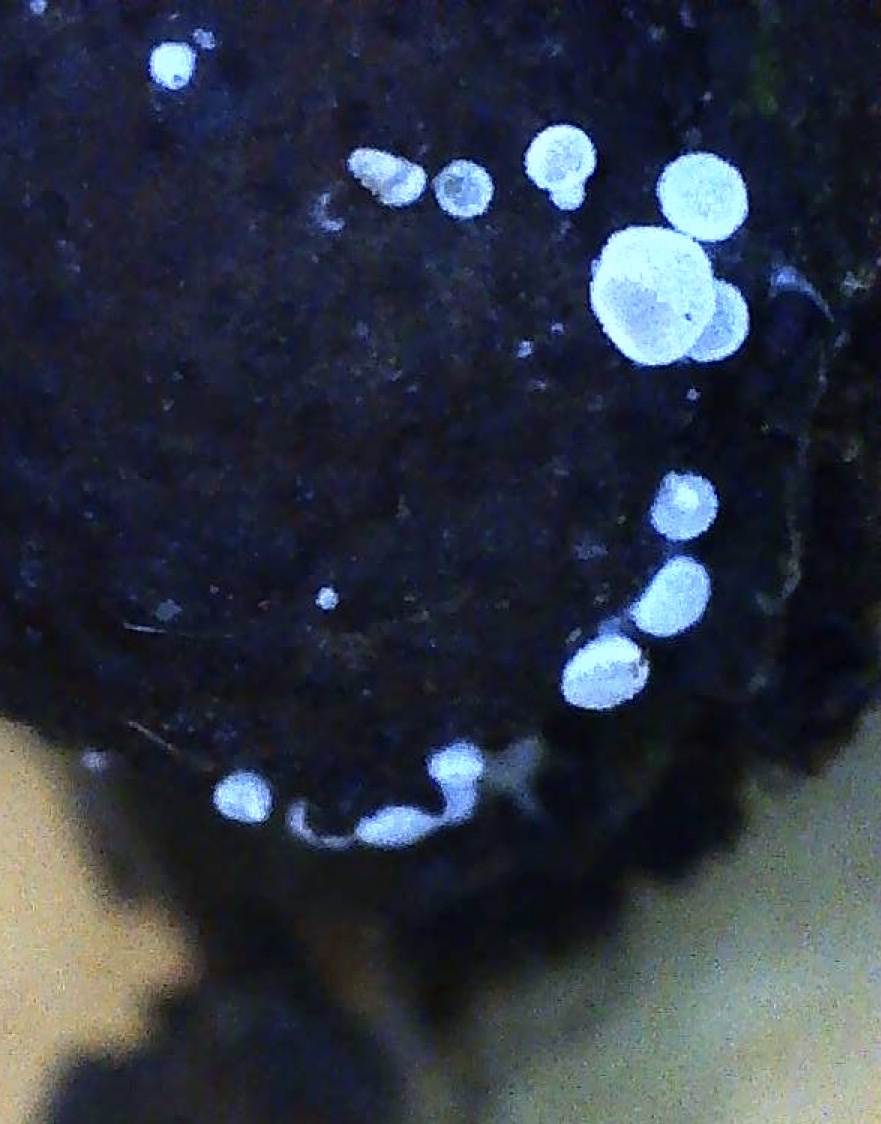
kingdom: Fungi
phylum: Ascomycota
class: Leotiomycetes
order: Helotiales
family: Hyaloscyphaceae
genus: Polydesmia
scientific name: Polydesmia pruinosa
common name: dunskive
